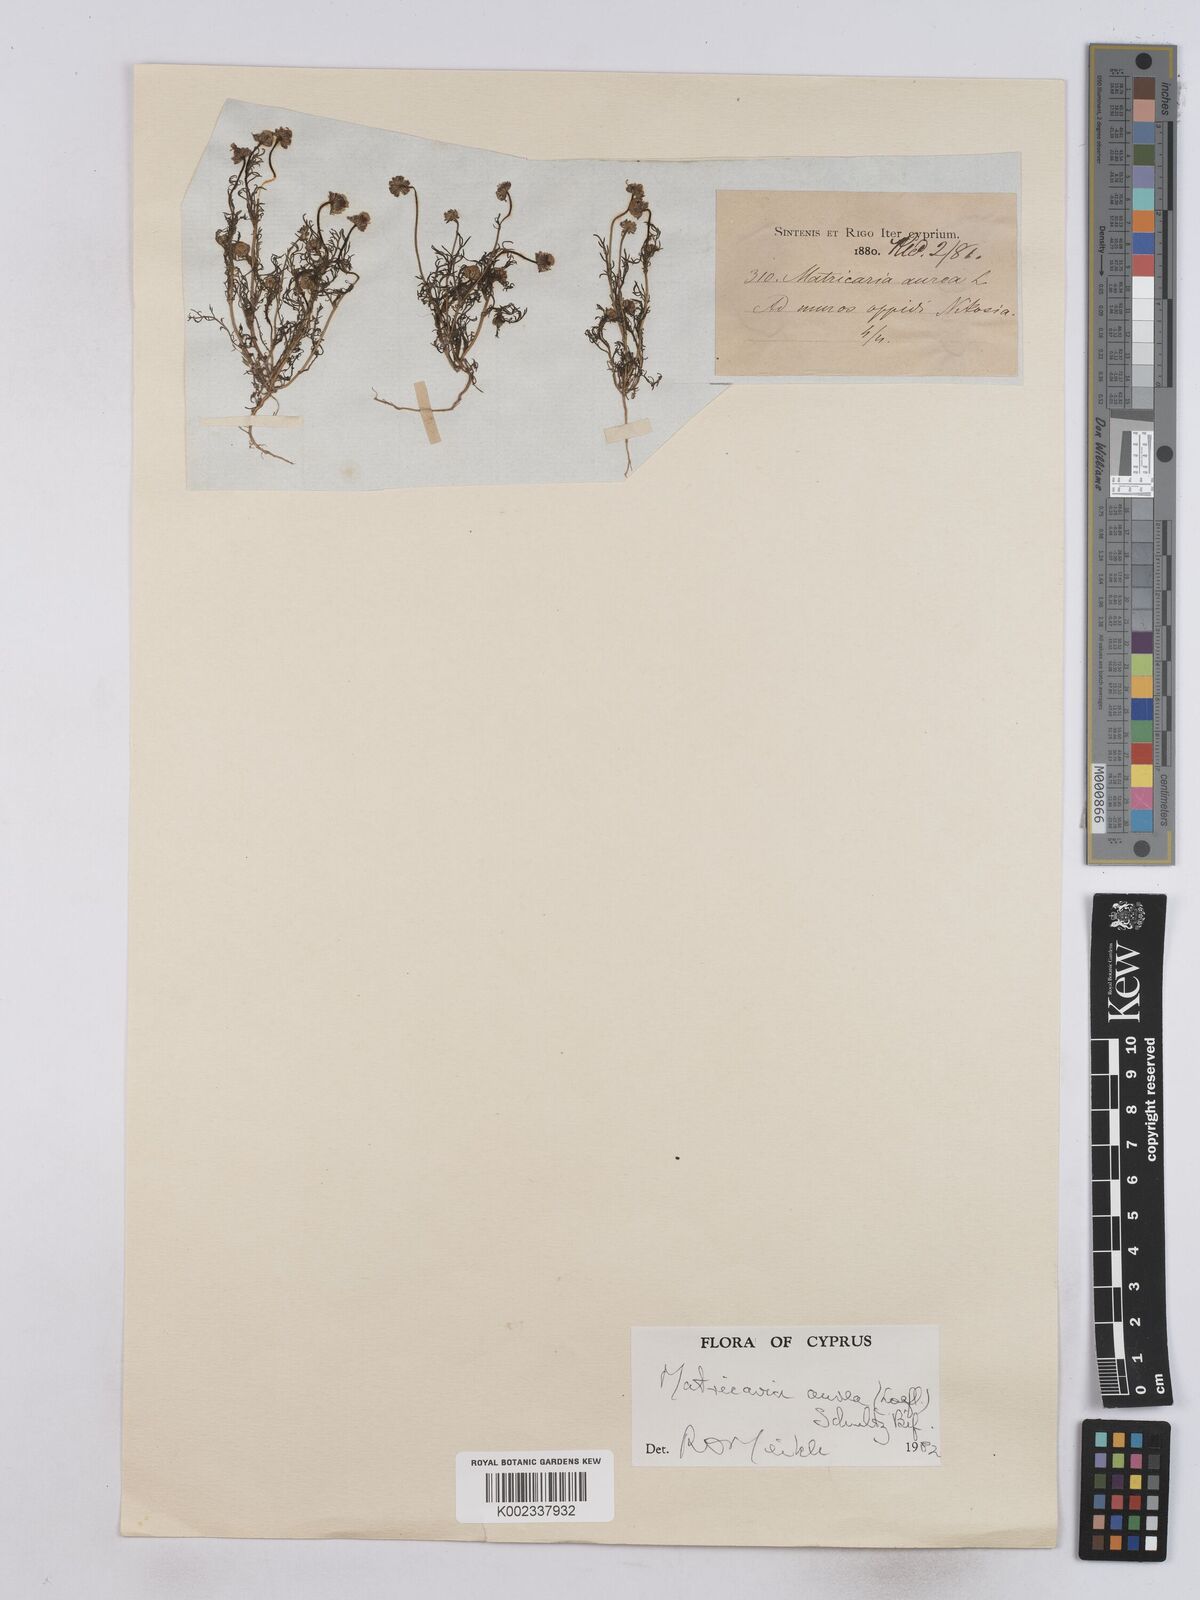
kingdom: Plantae
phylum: Tracheophyta
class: Magnoliopsida
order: Asterales
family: Asteraceae
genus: Matricaria
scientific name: Matricaria aurea
